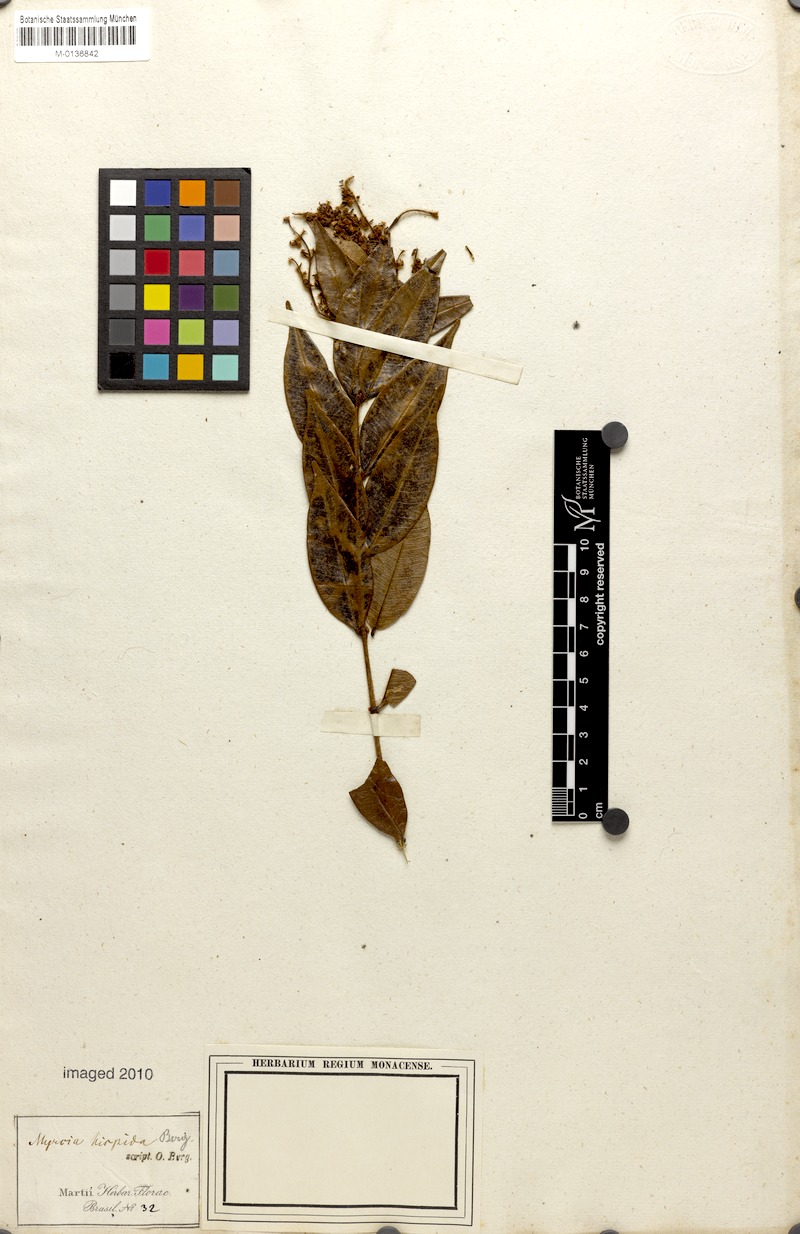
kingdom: Plantae
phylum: Tracheophyta
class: Magnoliopsida
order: Myrtales
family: Myrtaceae
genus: Myrcia
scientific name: Myrcia eriopus
